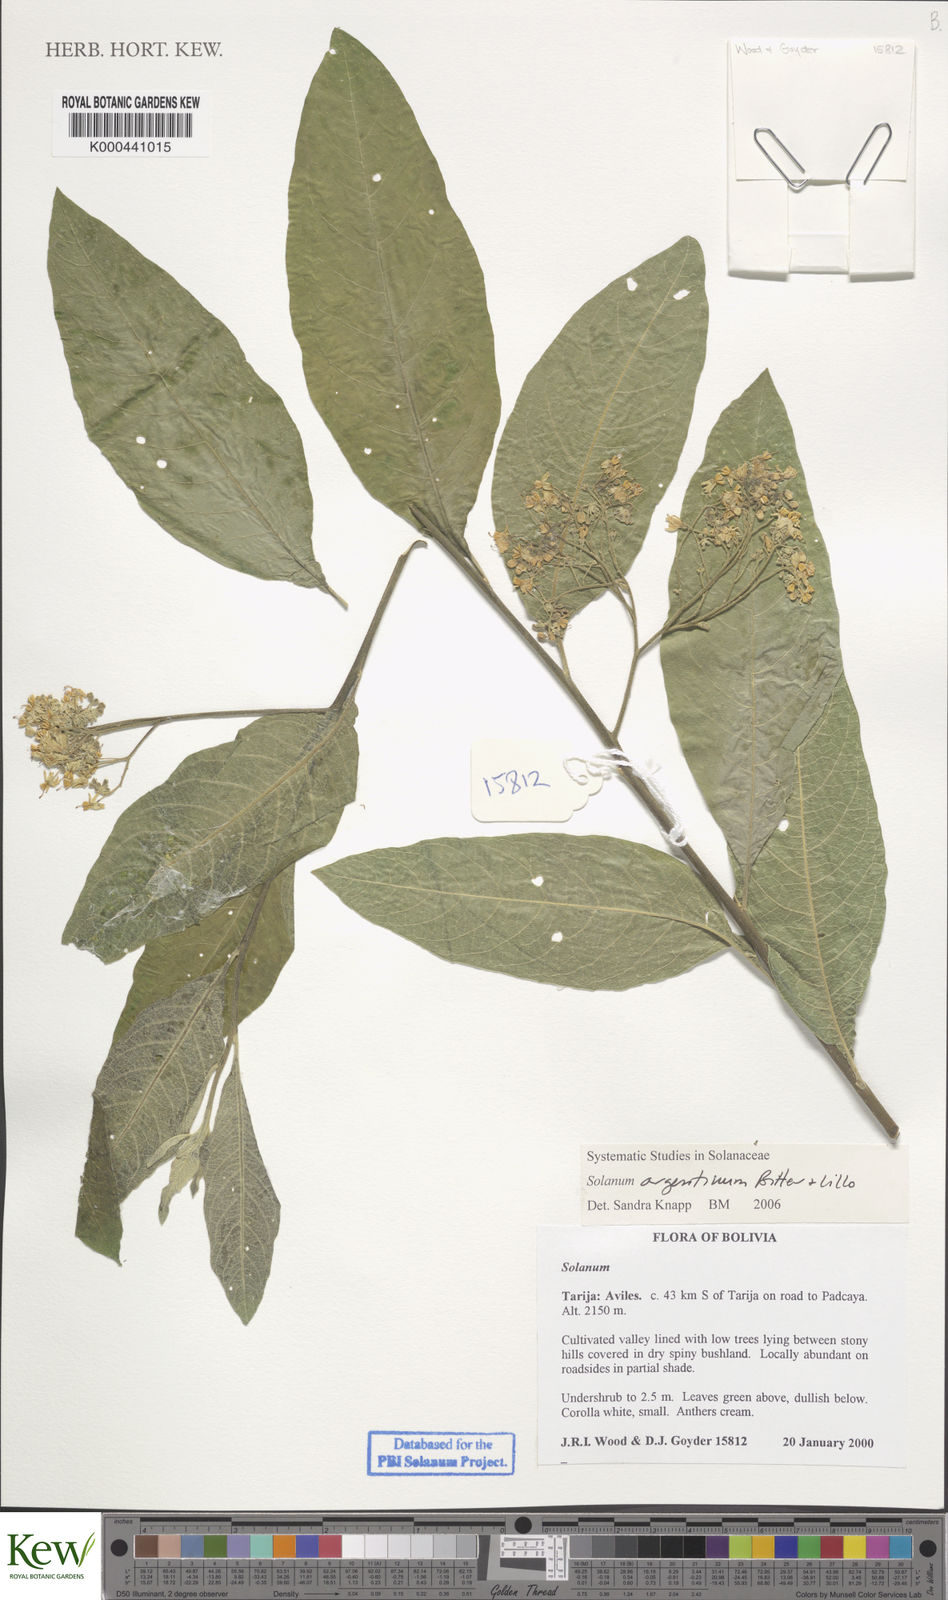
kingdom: Plantae
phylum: Tracheophyta
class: Magnoliopsida
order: Solanales
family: Solanaceae
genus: Solanum
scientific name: Solanum argentinum
